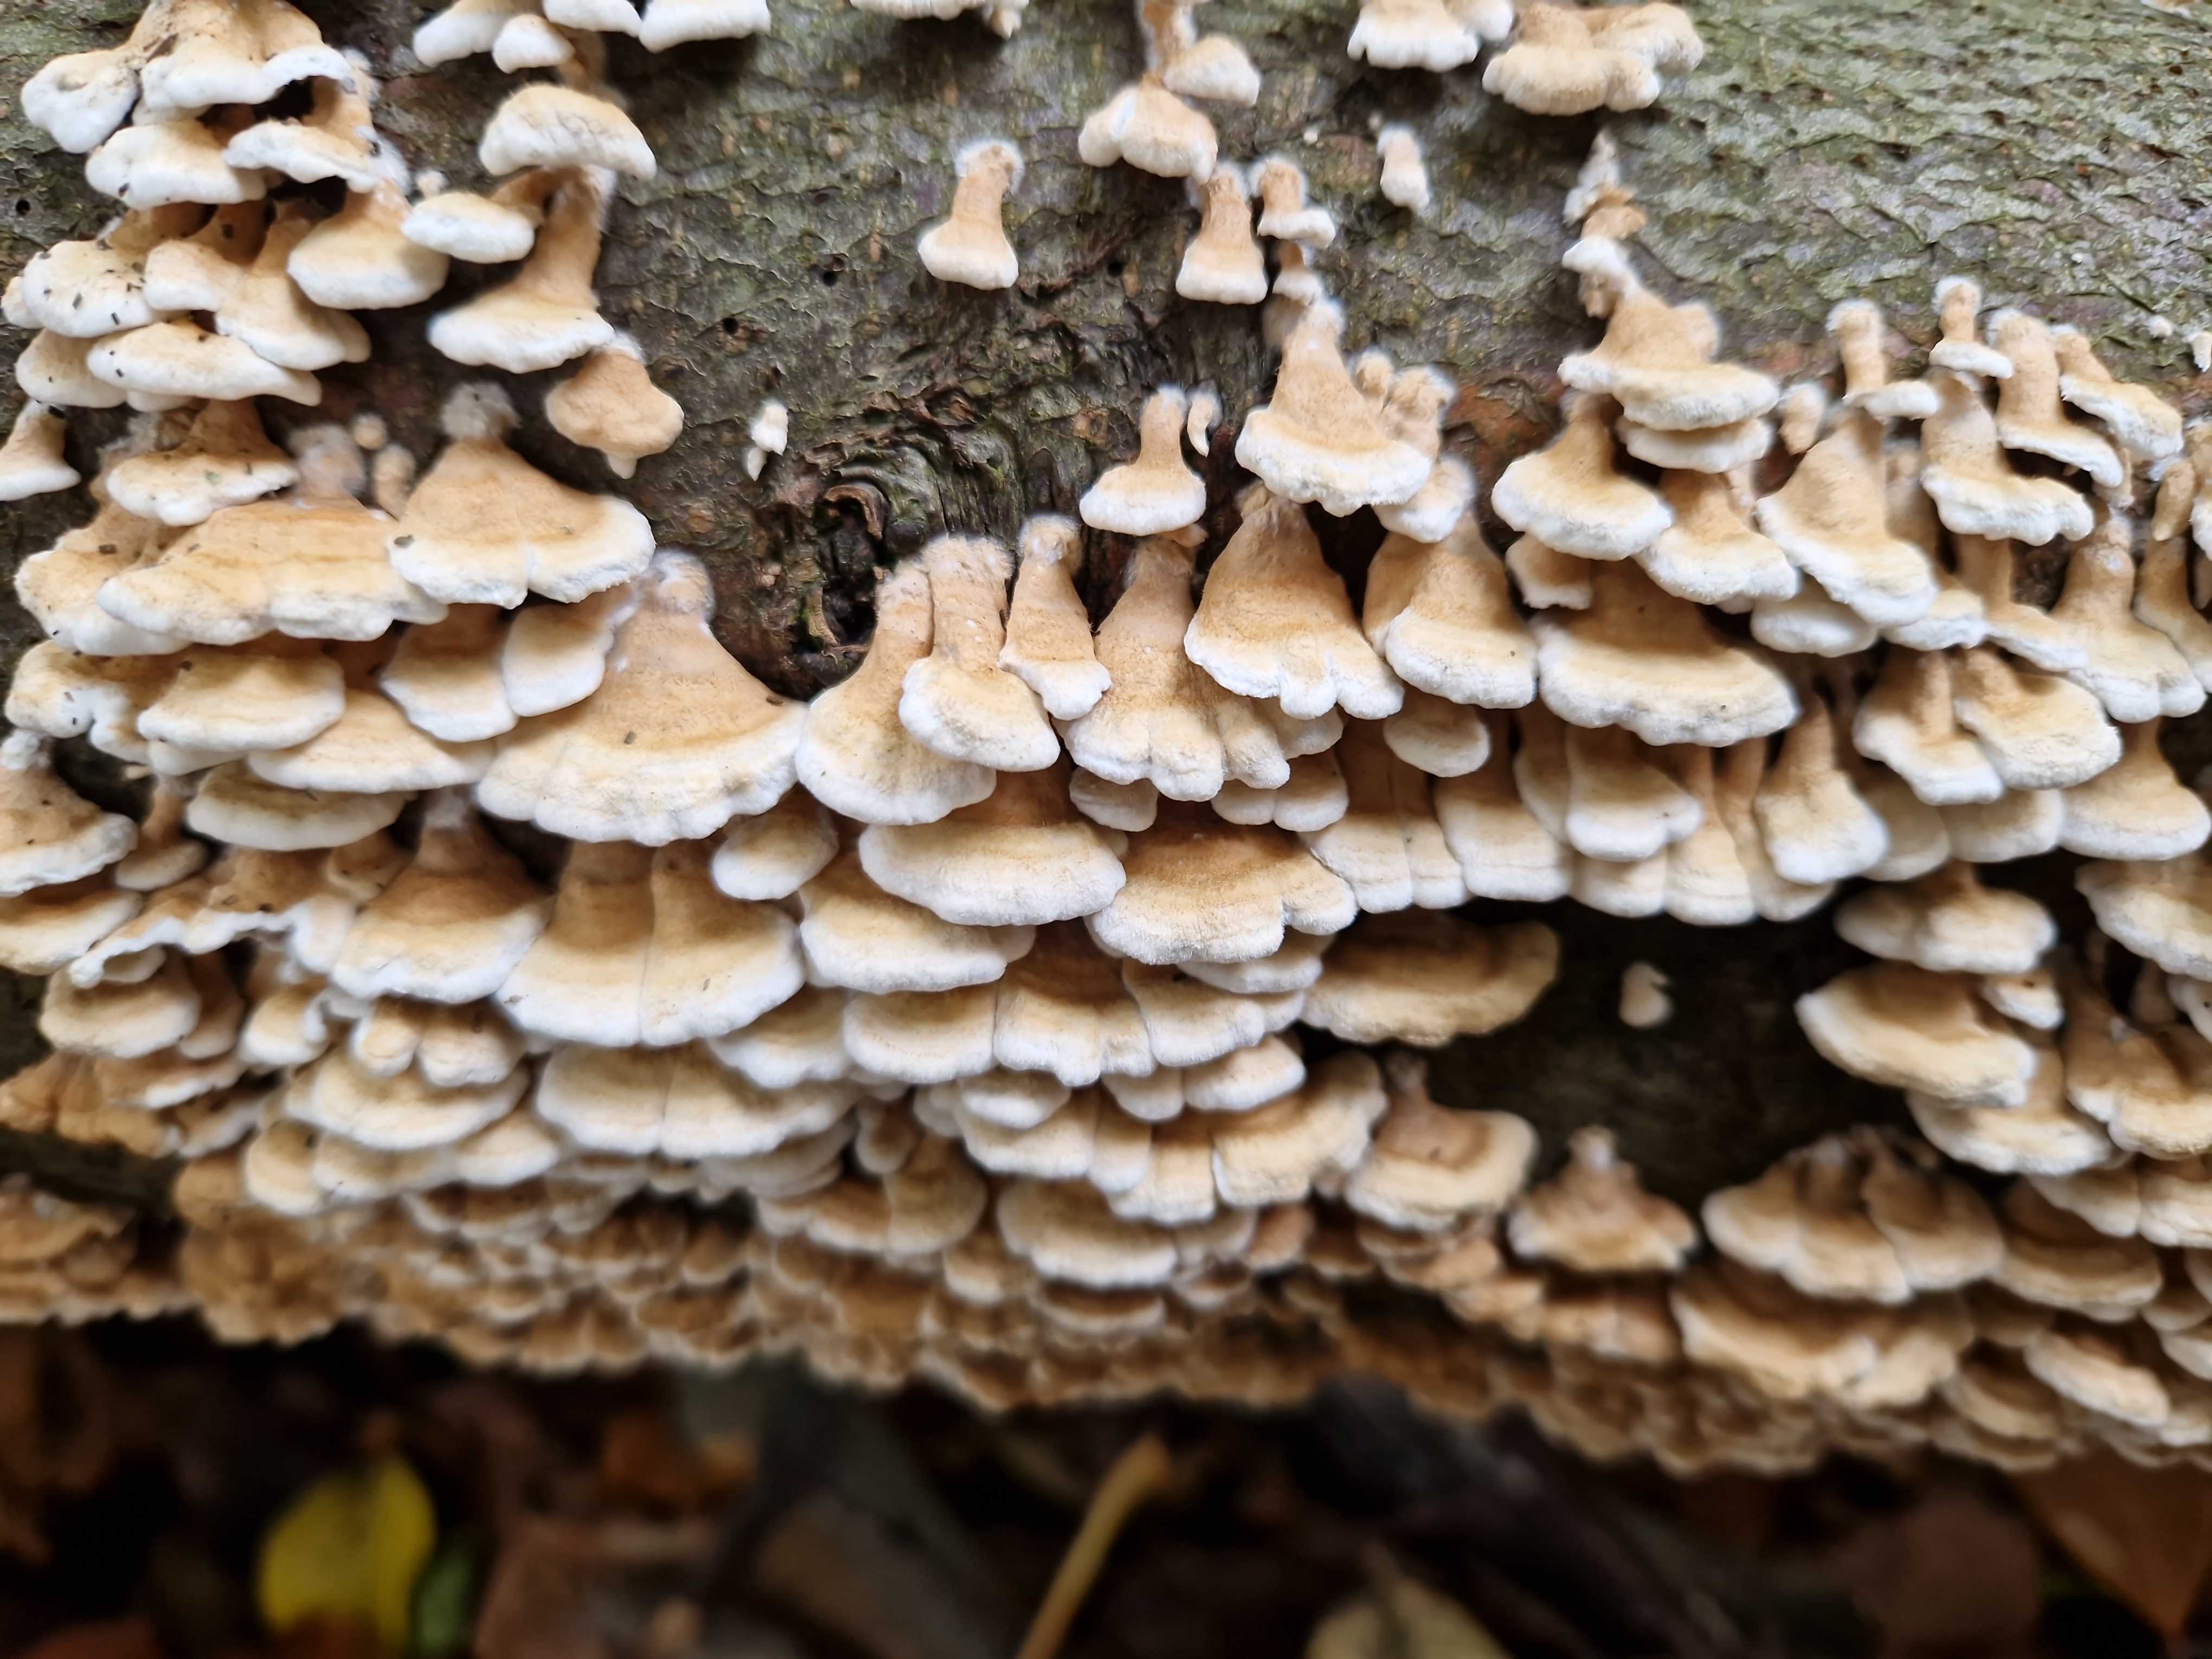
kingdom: Fungi
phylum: Basidiomycota
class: Agaricomycetes
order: Amylocorticiales
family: Amylocorticiaceae
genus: Plicaturopsis
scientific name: Plicaturopsis crispa
